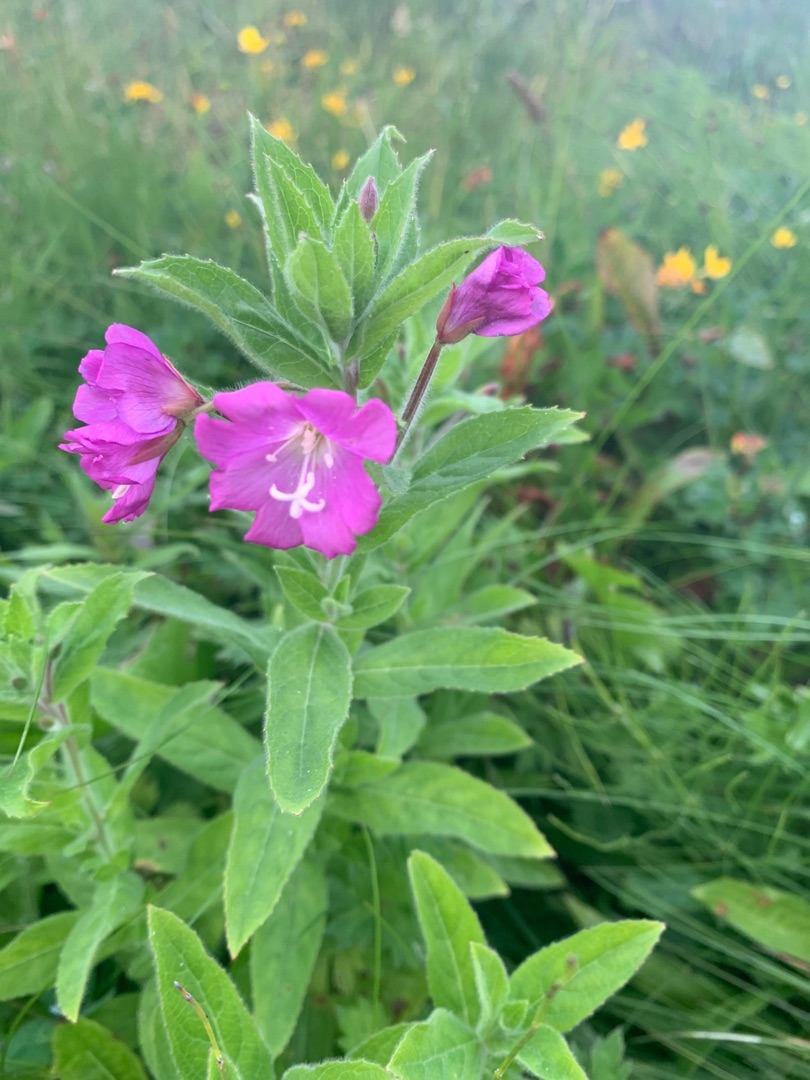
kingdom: Plantae
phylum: Tracheophyta
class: Magnoliopsida
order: Myrtales
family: Onagraceae
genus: Epilobium
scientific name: Epilobium hirsutum
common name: Lådden dueurt
